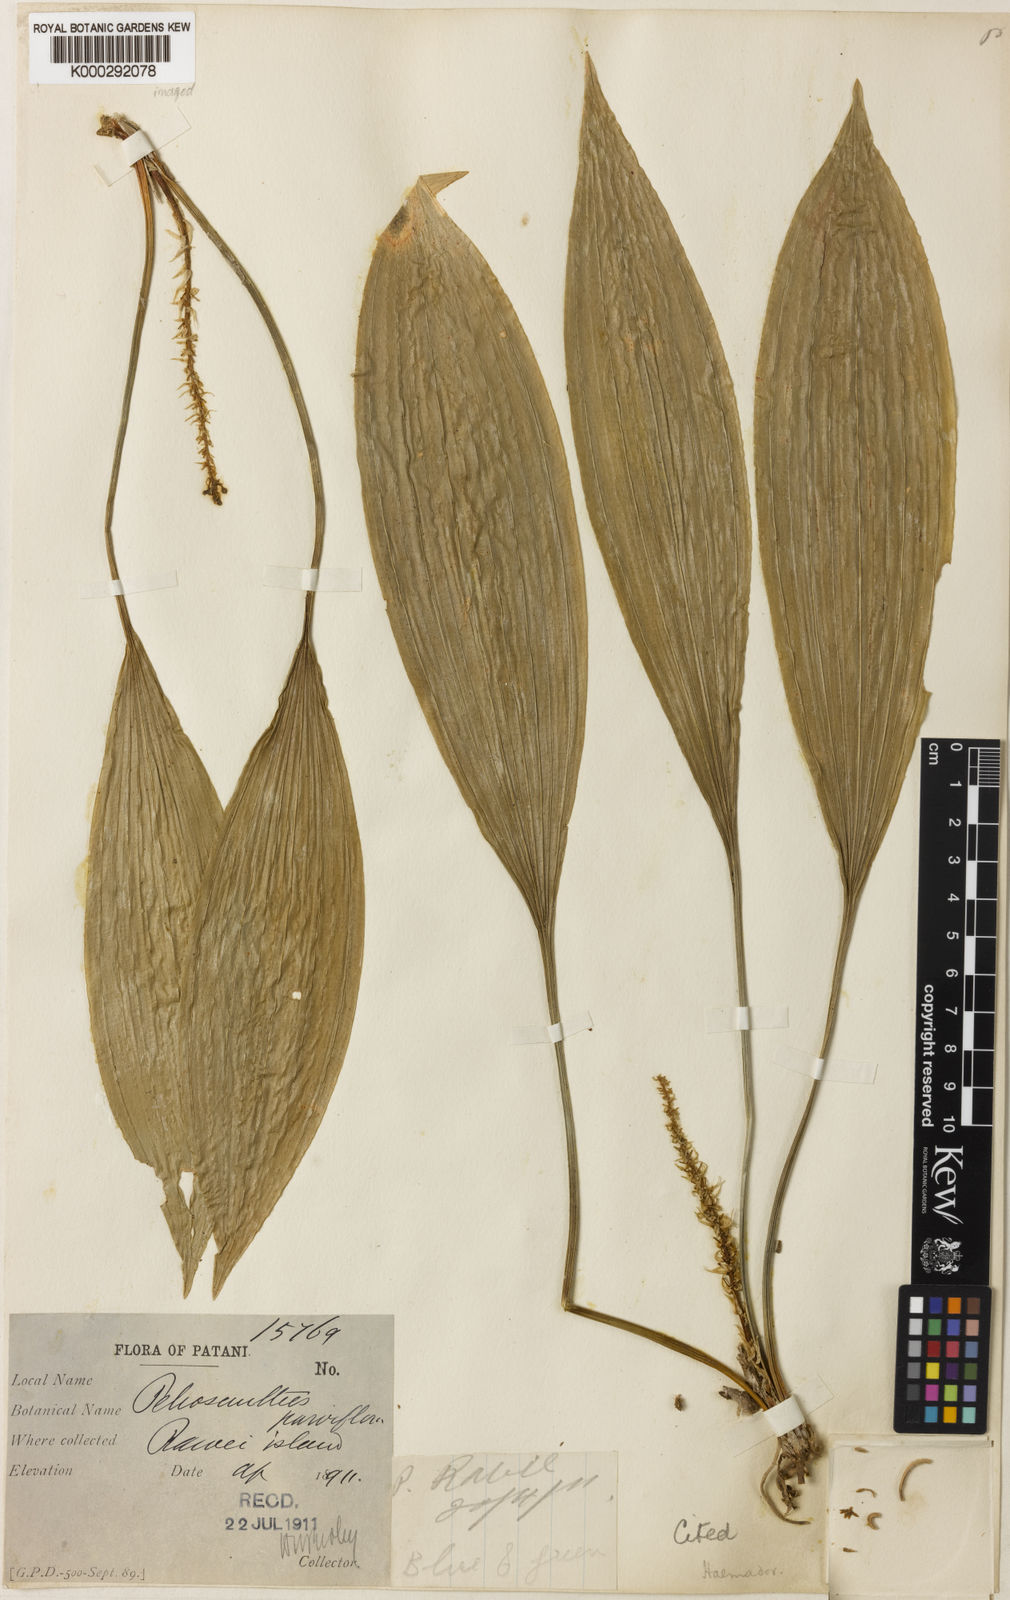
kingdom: Plantae
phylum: Tracheophyta
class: Liliopsida
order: Asparagales
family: Asparagaceae
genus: Peliosanthes
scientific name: Peliosanthes teta
